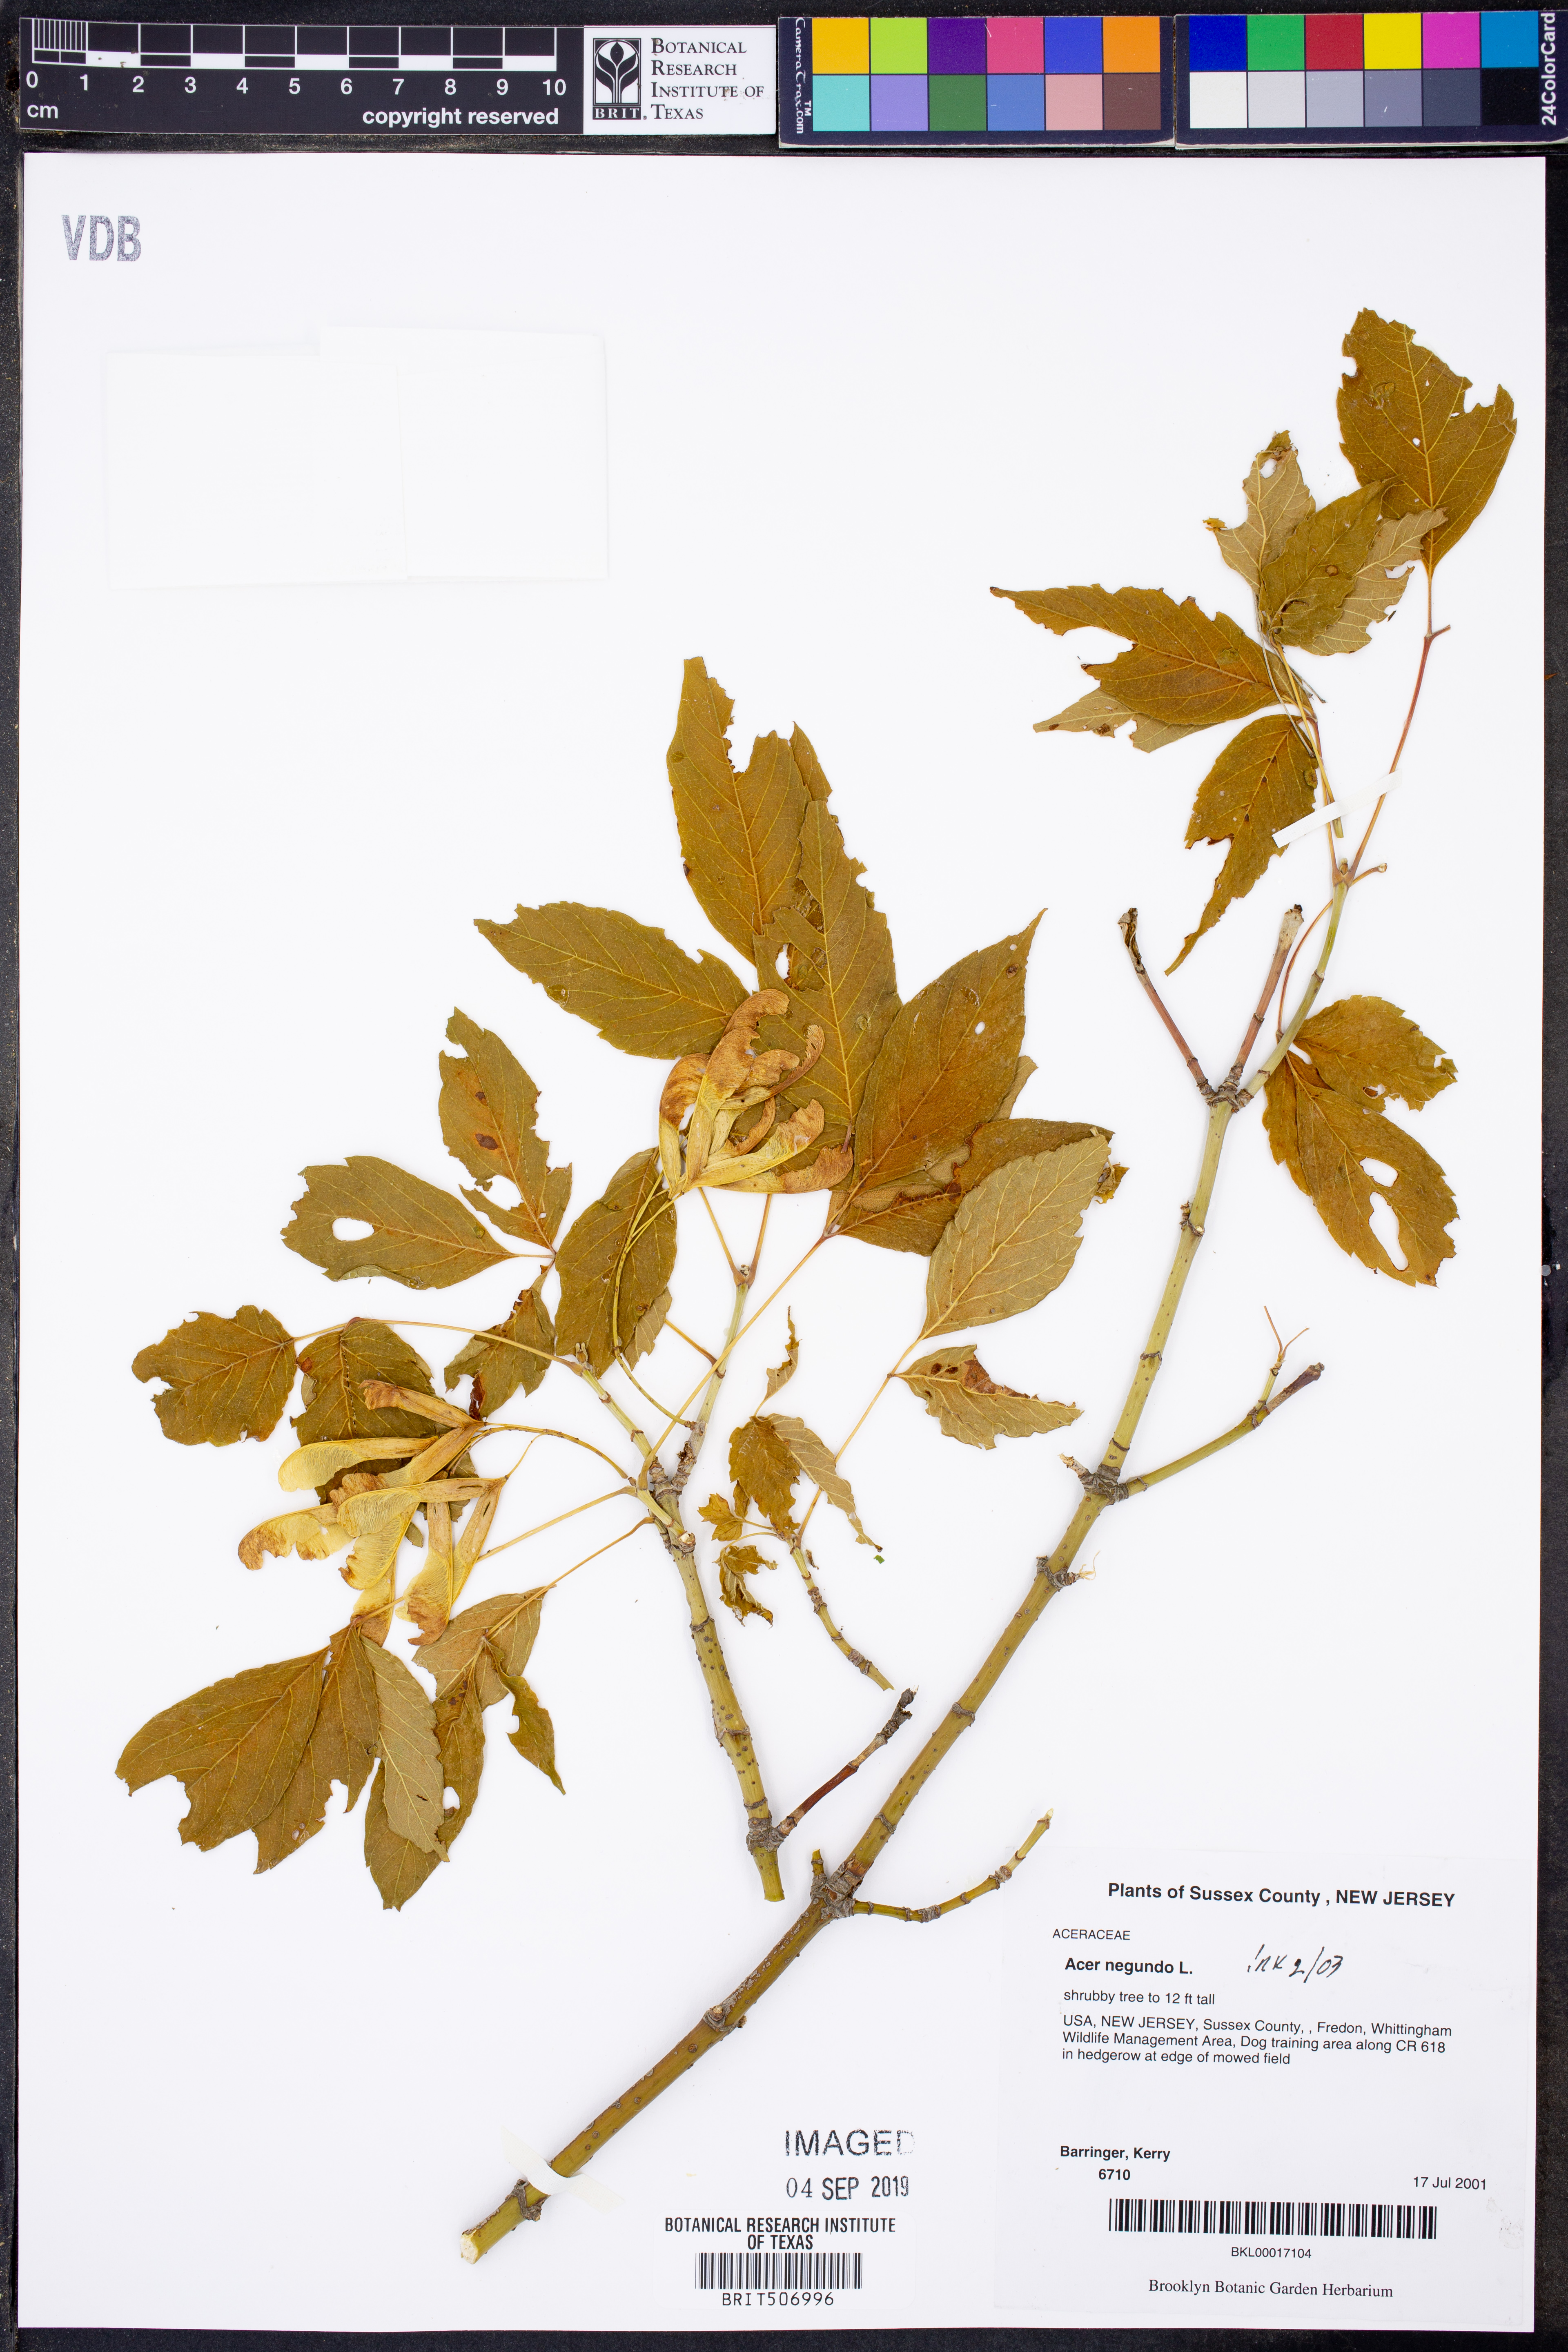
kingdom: Plantae
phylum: Tracheophyta
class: Magnoliopsida
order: Sapindales
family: Sapindaceae
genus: Acer
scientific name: Acer negundo
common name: Ashleaf maple
